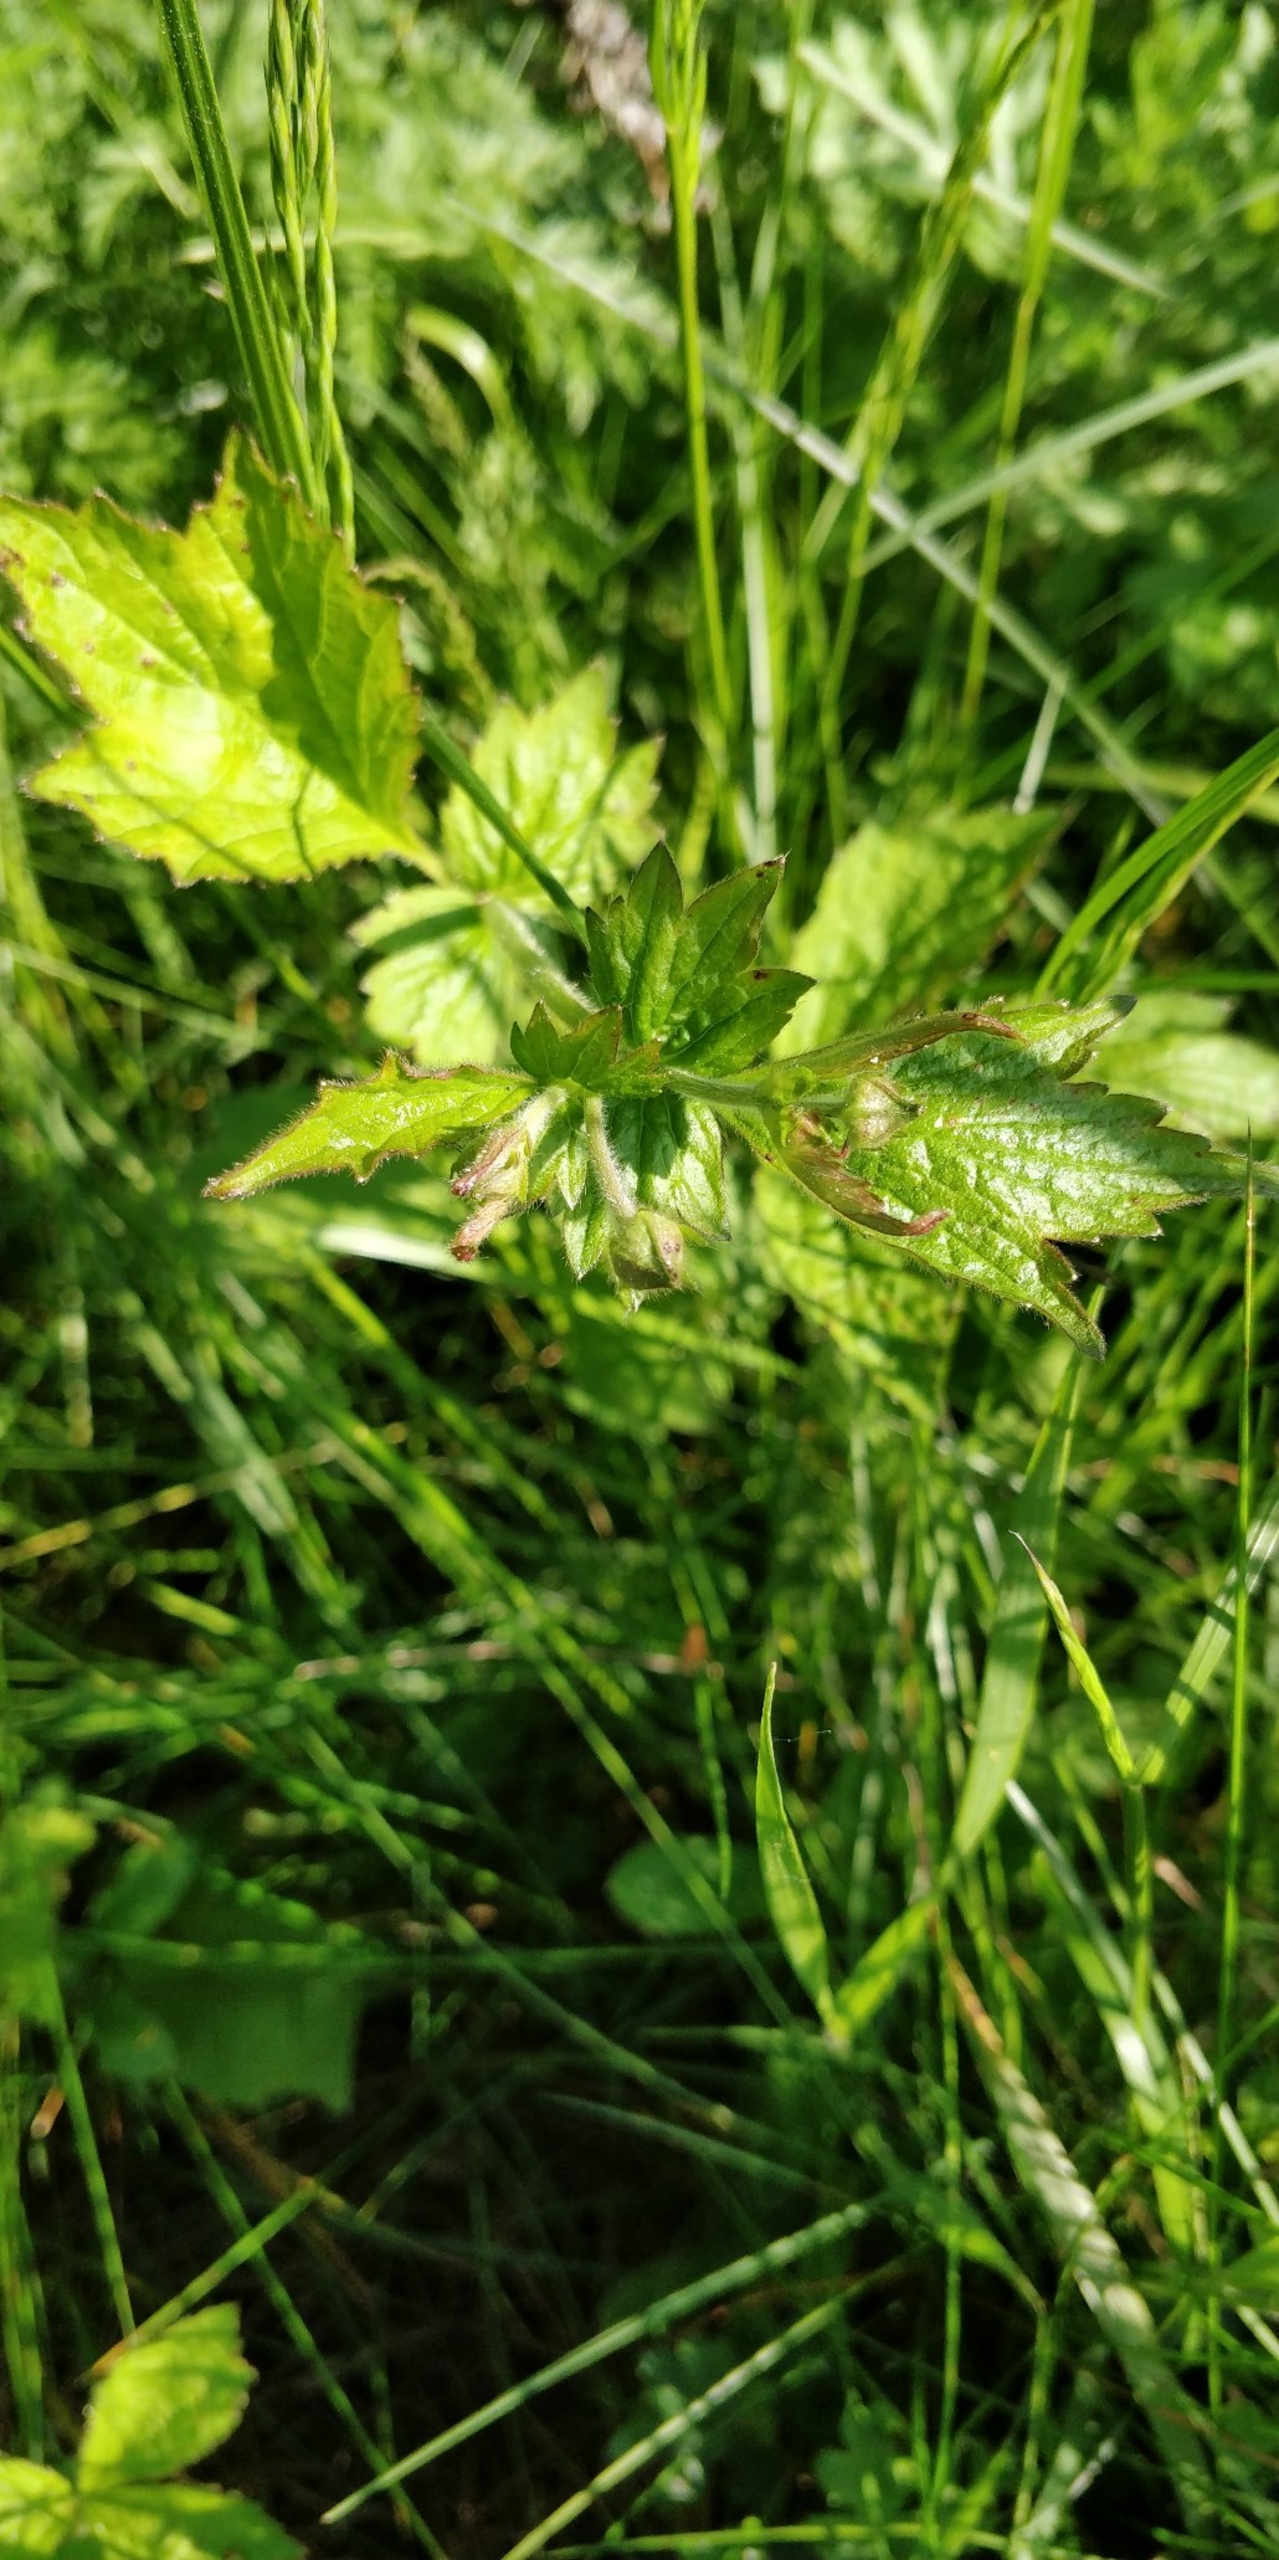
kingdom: Plantae
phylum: Tracheophyta
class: Magnoliopsida
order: Rosales
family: Rosaceae
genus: Geum
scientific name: Geum urbanum
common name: Feber-nellikerod
